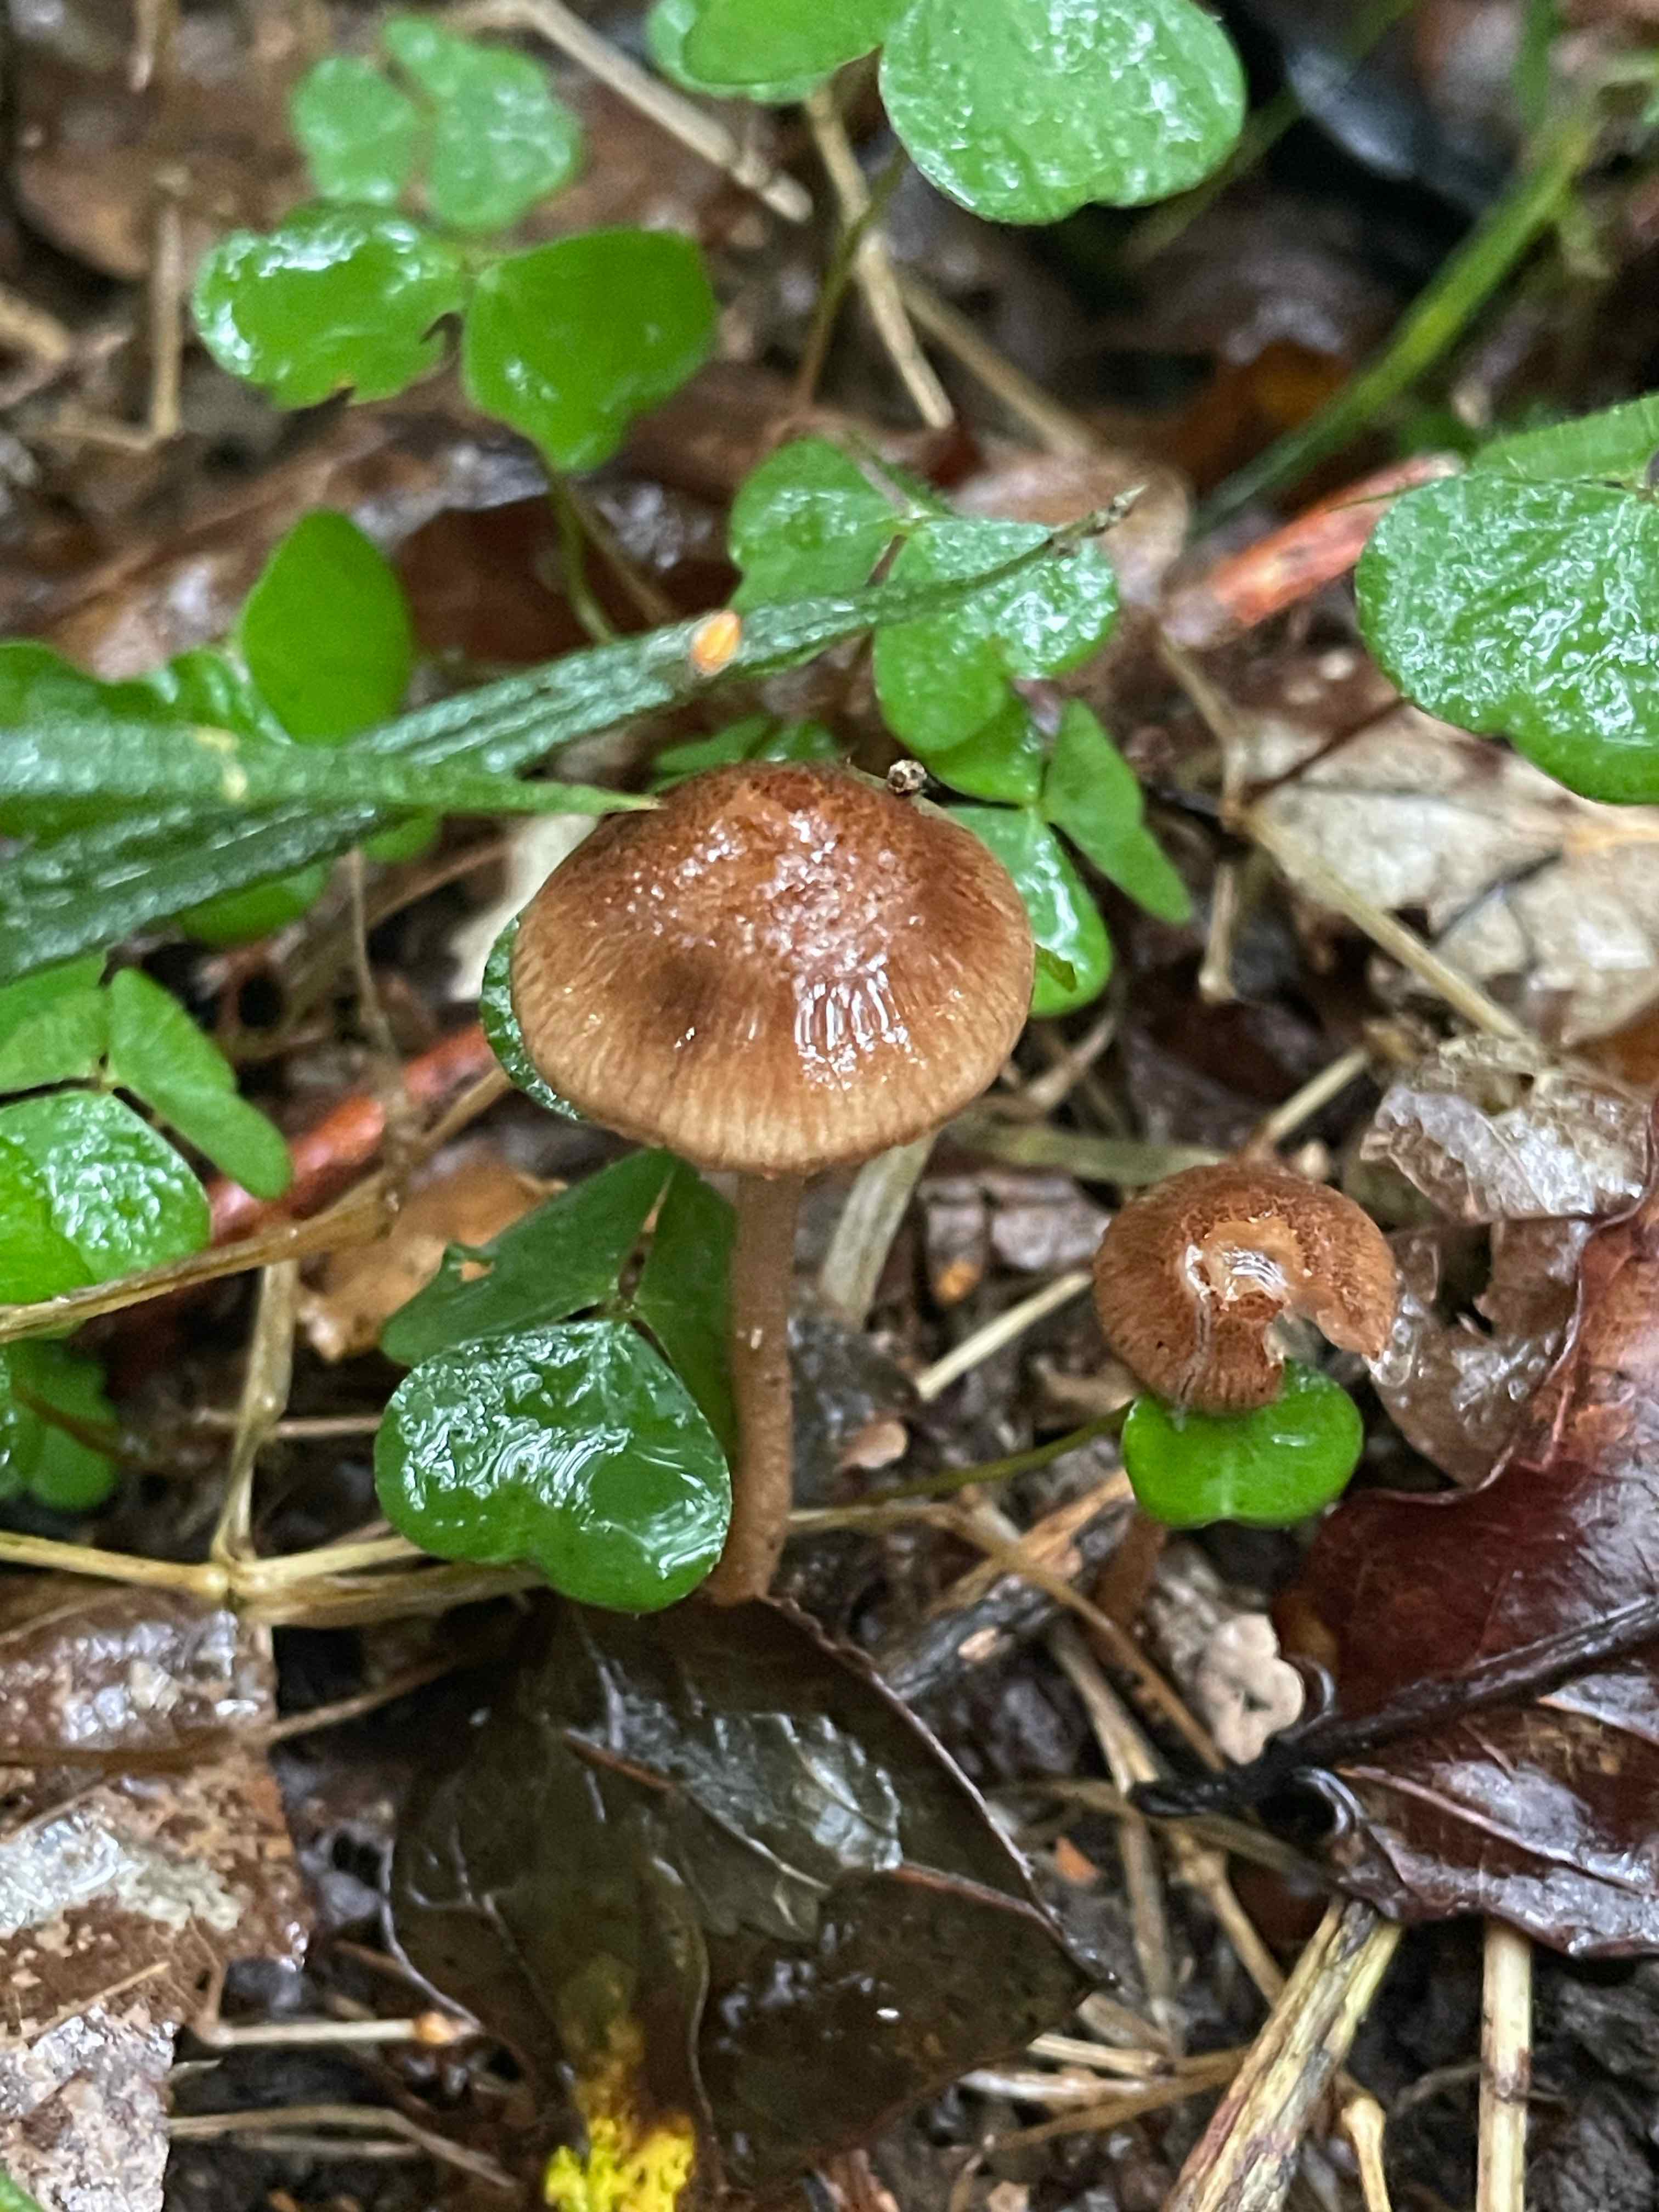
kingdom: Fungi
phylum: Basidiomycota
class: Agaricomycetes
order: Agaricales
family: Inocybaceae
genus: Inocybe
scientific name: Inocybe
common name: trævlhat
